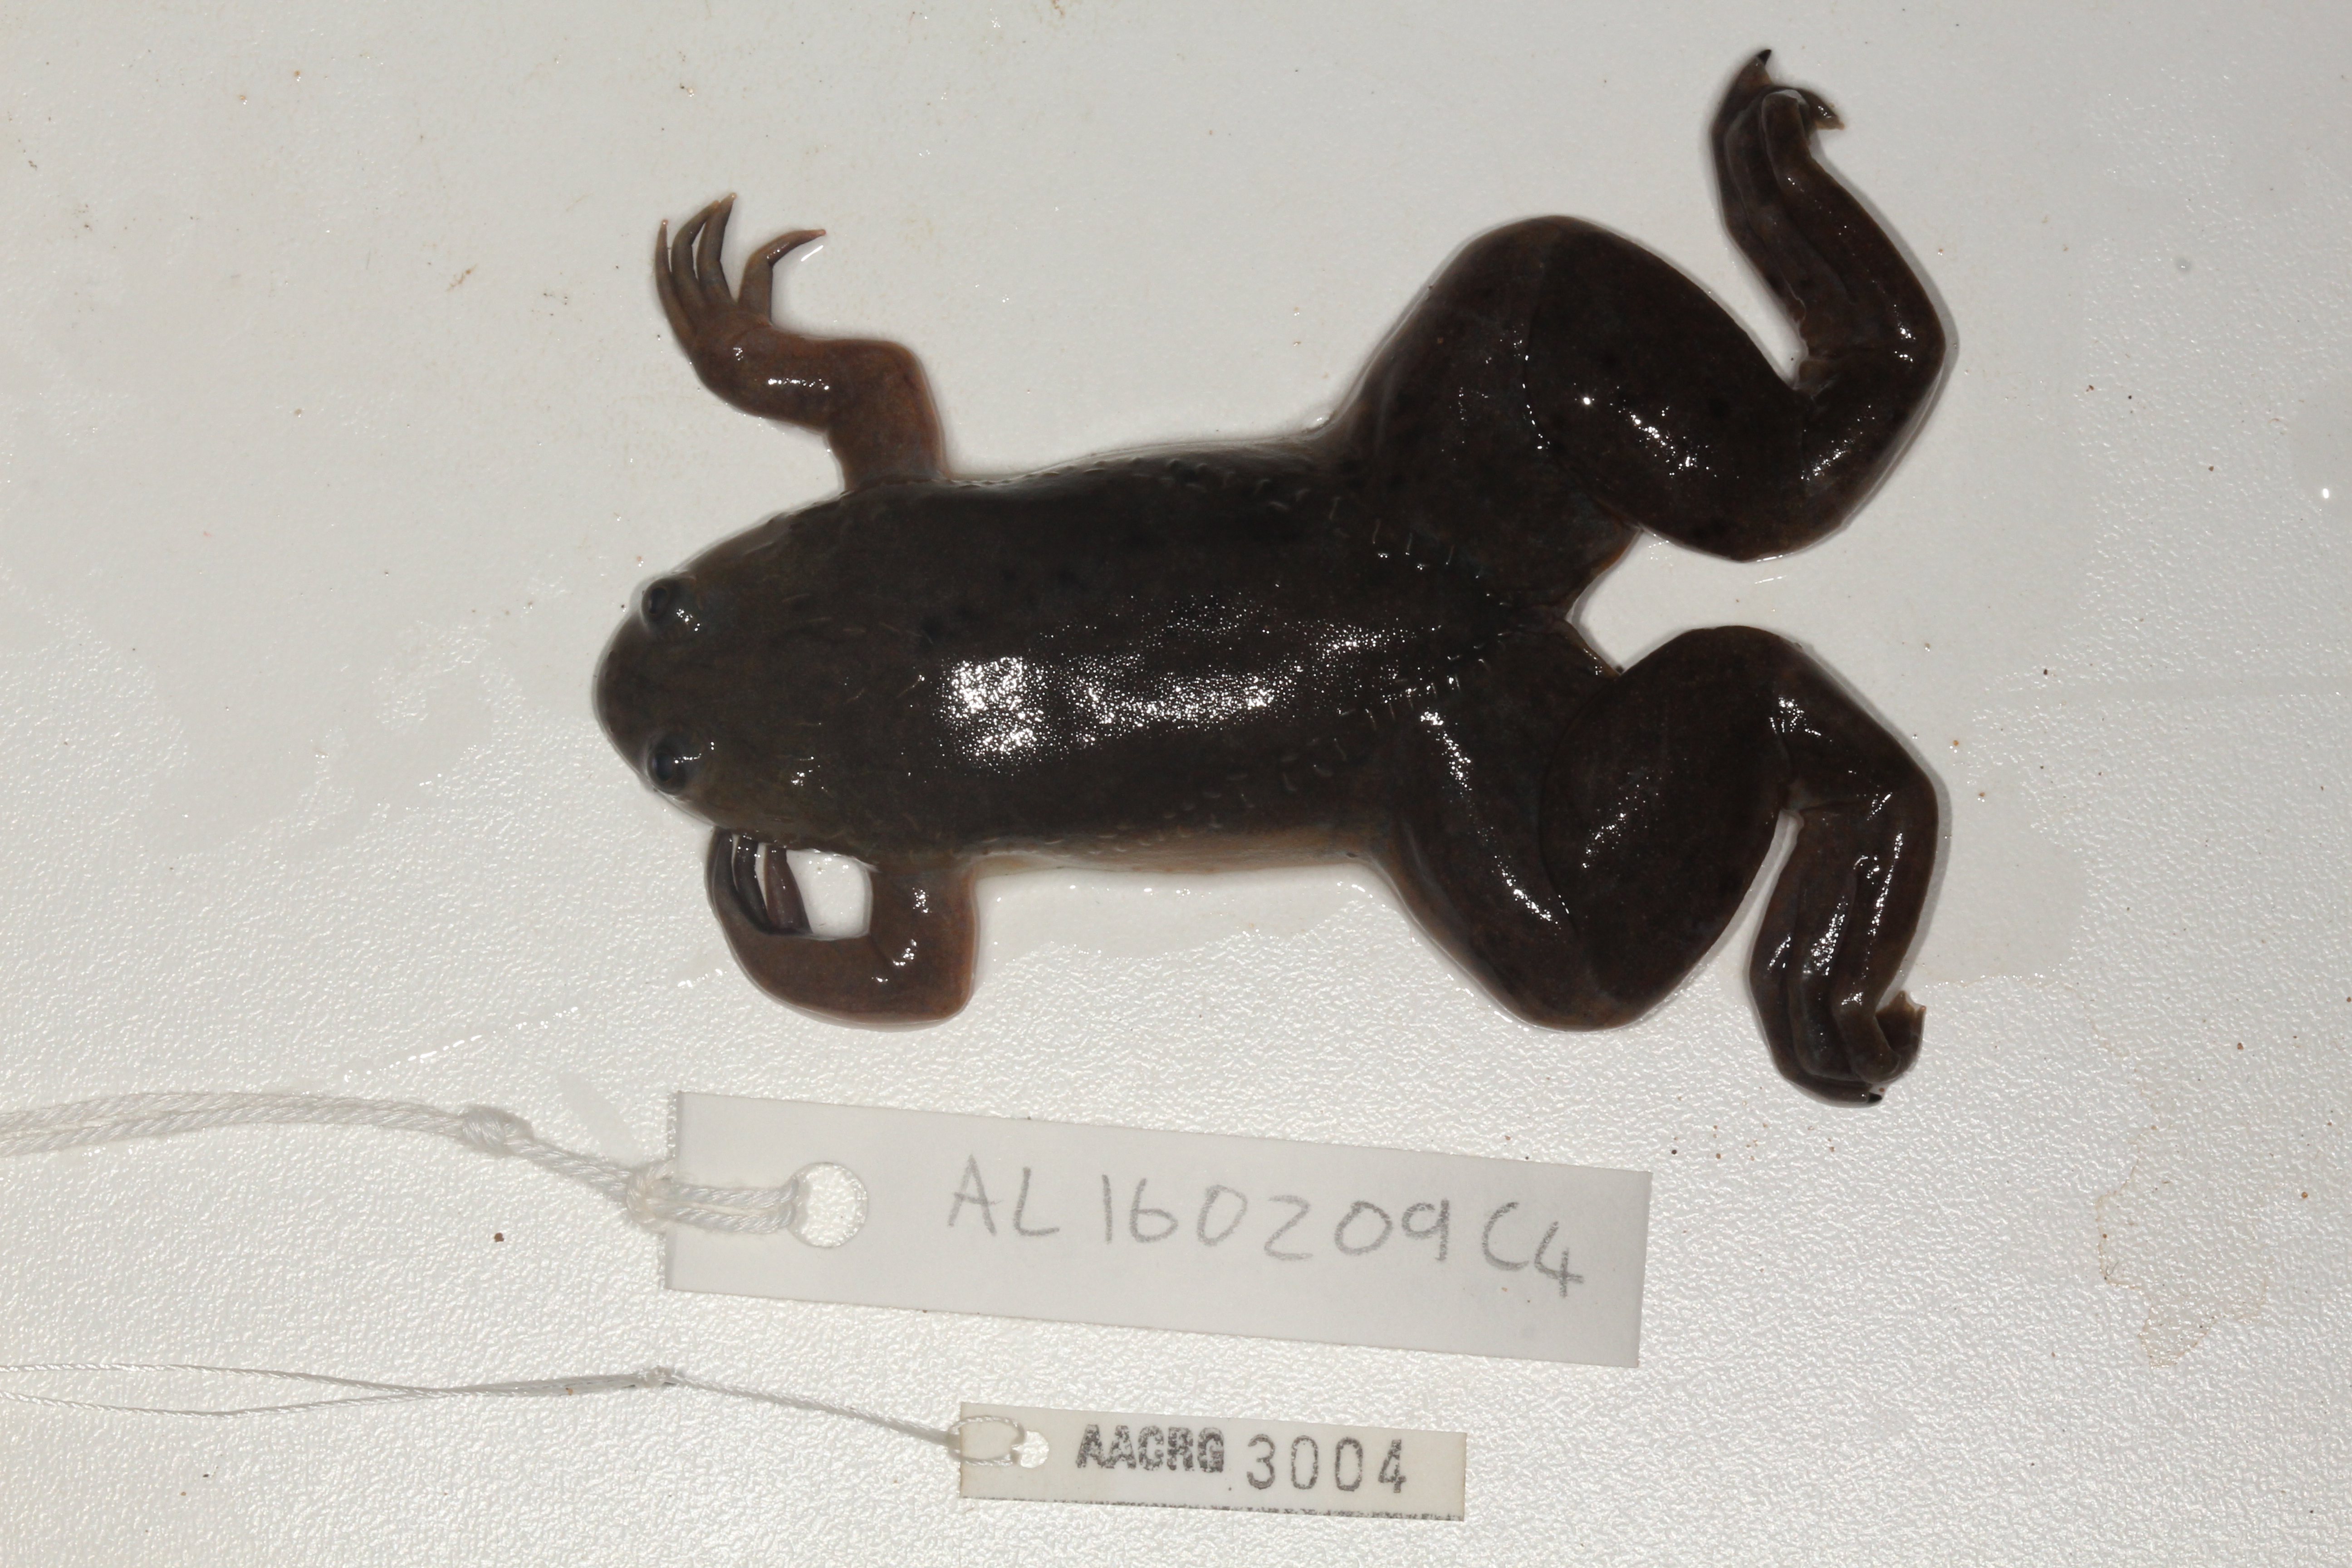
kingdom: Animalia
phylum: Chordata
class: Amphibia
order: Anura
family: Pipidae
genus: Xenopus
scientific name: Xenopus laevis
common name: African clawed frog
